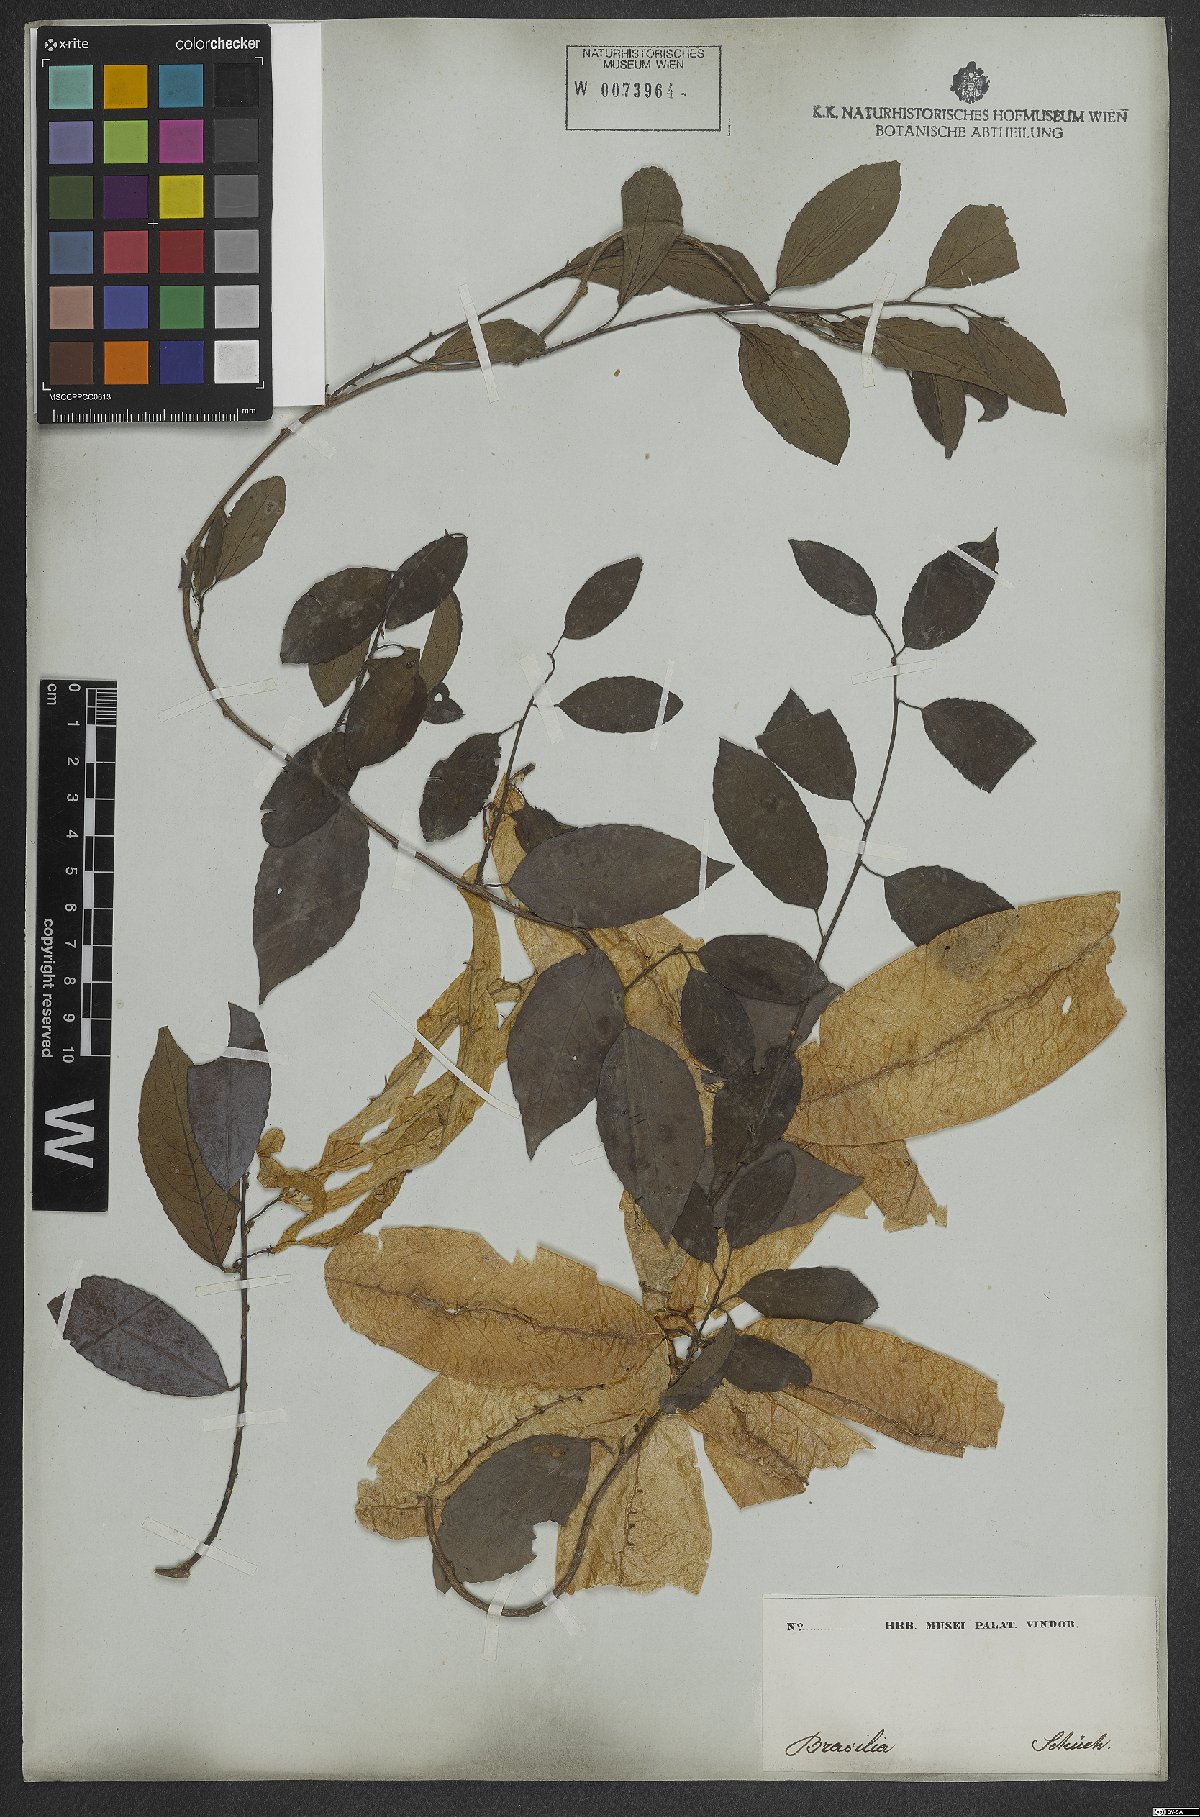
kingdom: Plantae
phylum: Tracheophyta
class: Magnoliopsida
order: Malpighiales
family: Violaceae
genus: Anchietea
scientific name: Anchietea pyrifolia
